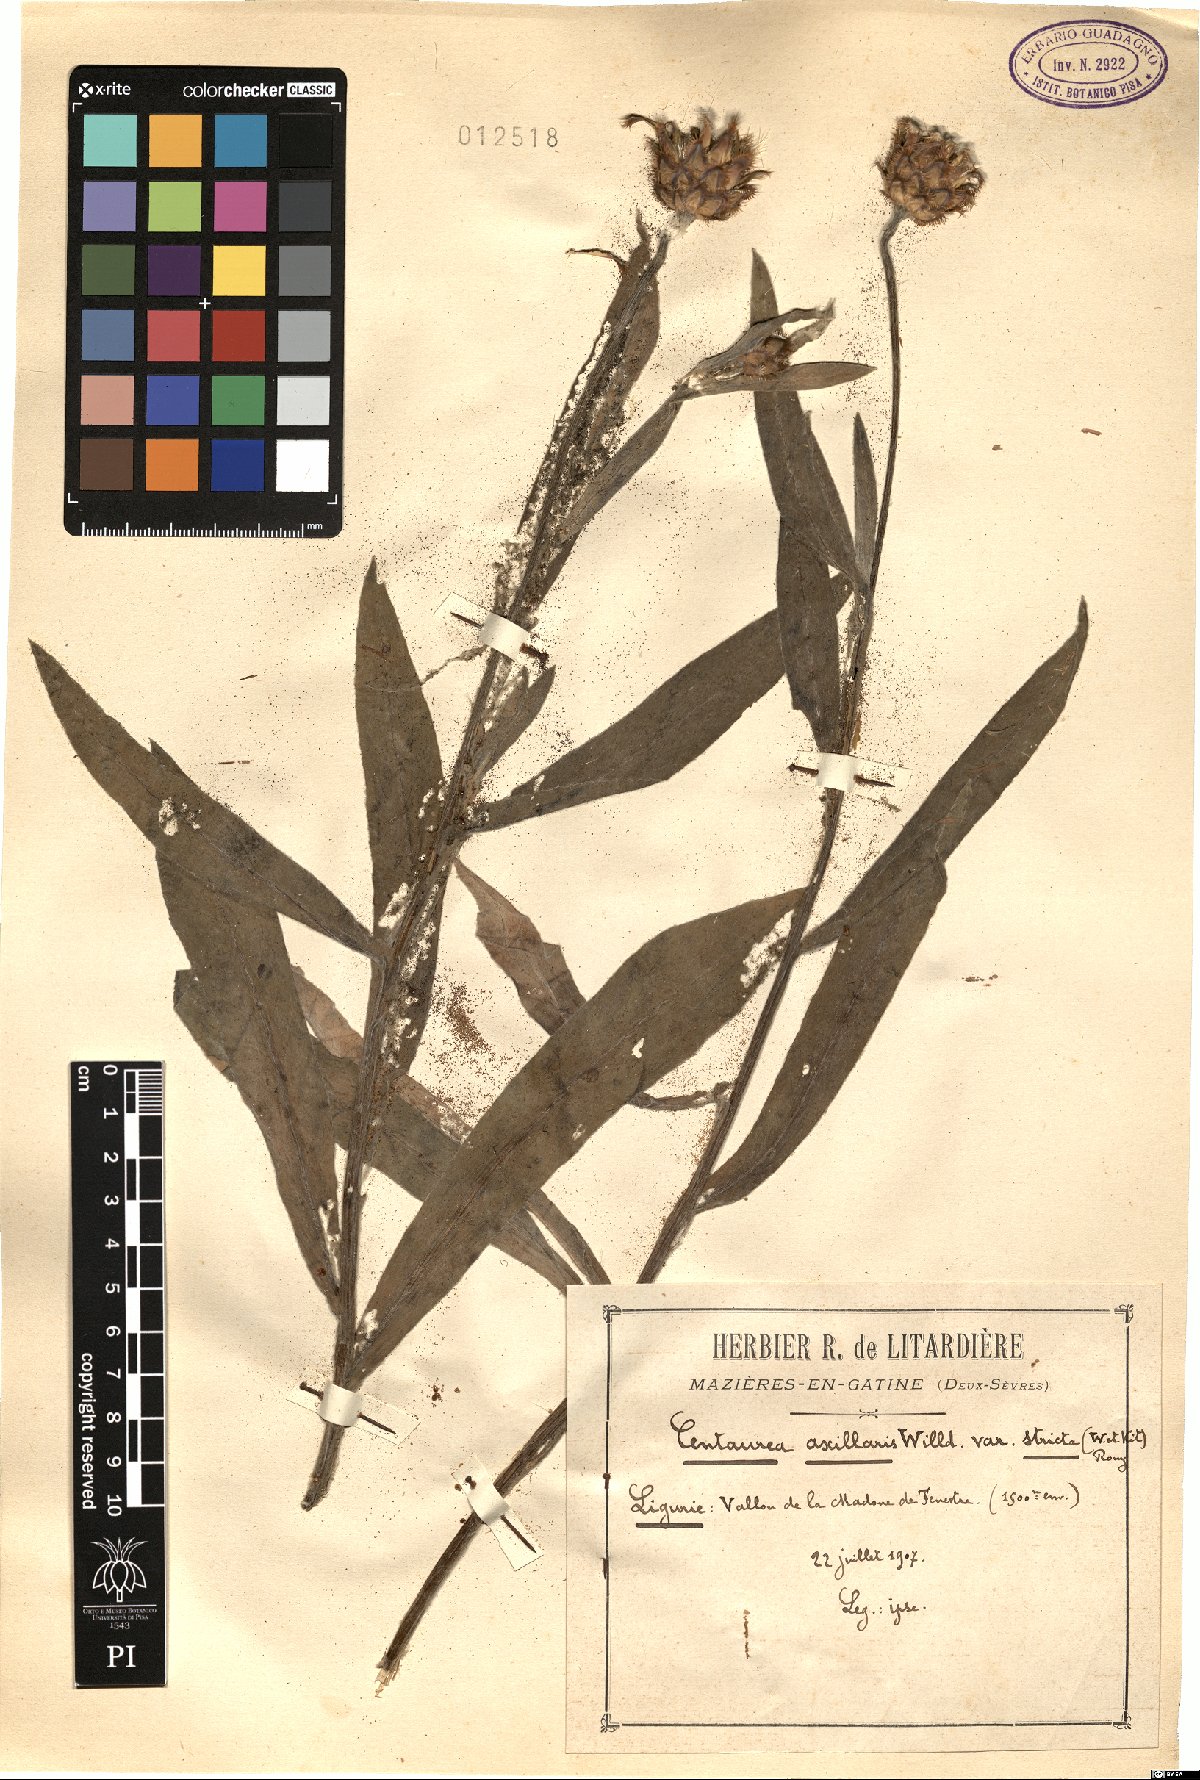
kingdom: Plantae
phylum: Tracheophyta
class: Magnoliopsida
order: Asterales
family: Asteraceae
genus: Centaurea
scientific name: Centaurea triumfettii
